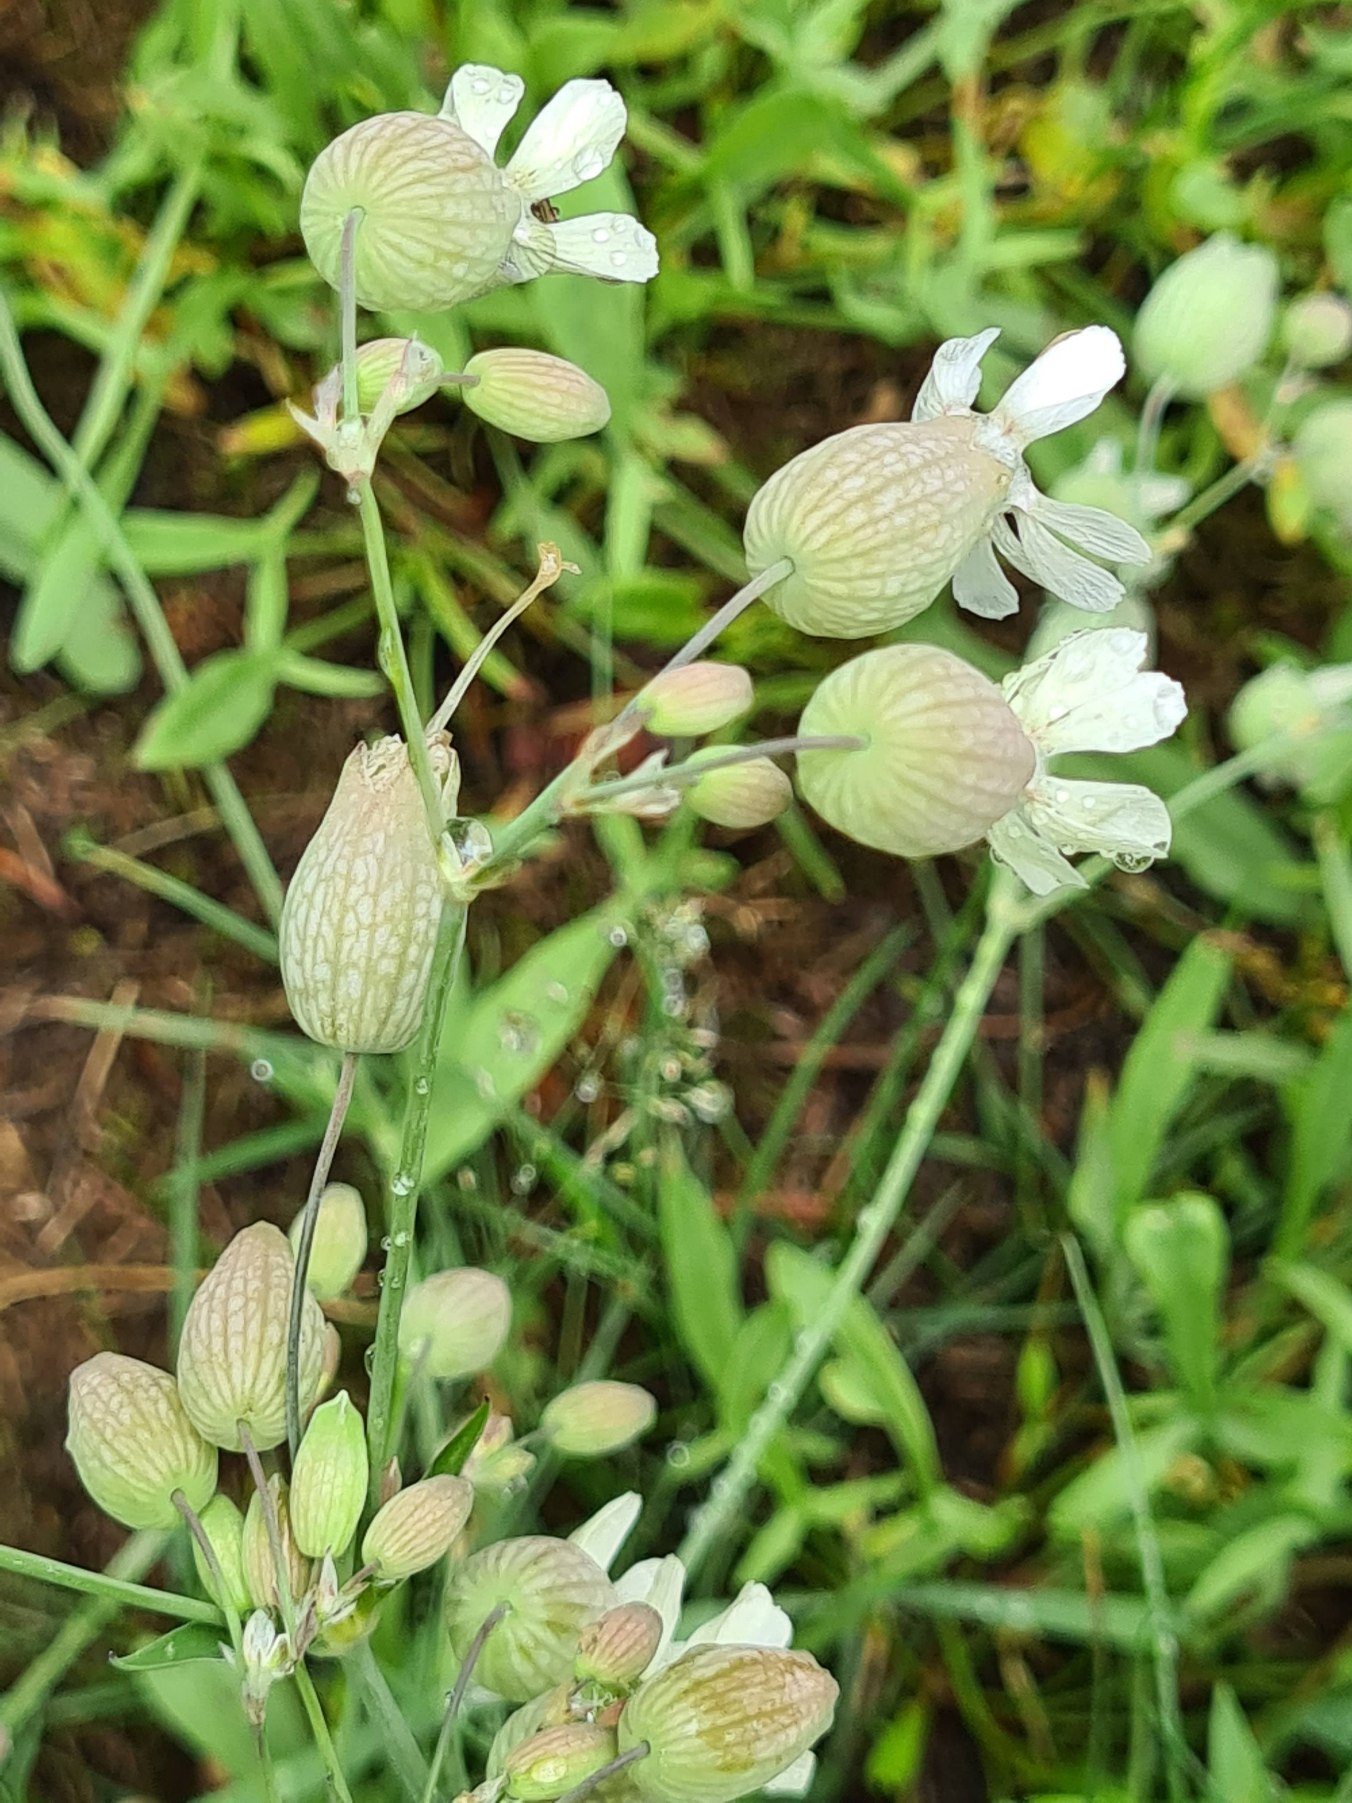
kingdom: Plantae
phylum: Tracheophyta
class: Magnoliopsida
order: Caryophyllales
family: Caryophyllaceae
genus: Silene
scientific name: Silene vulgaris
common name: Blæresmælde
